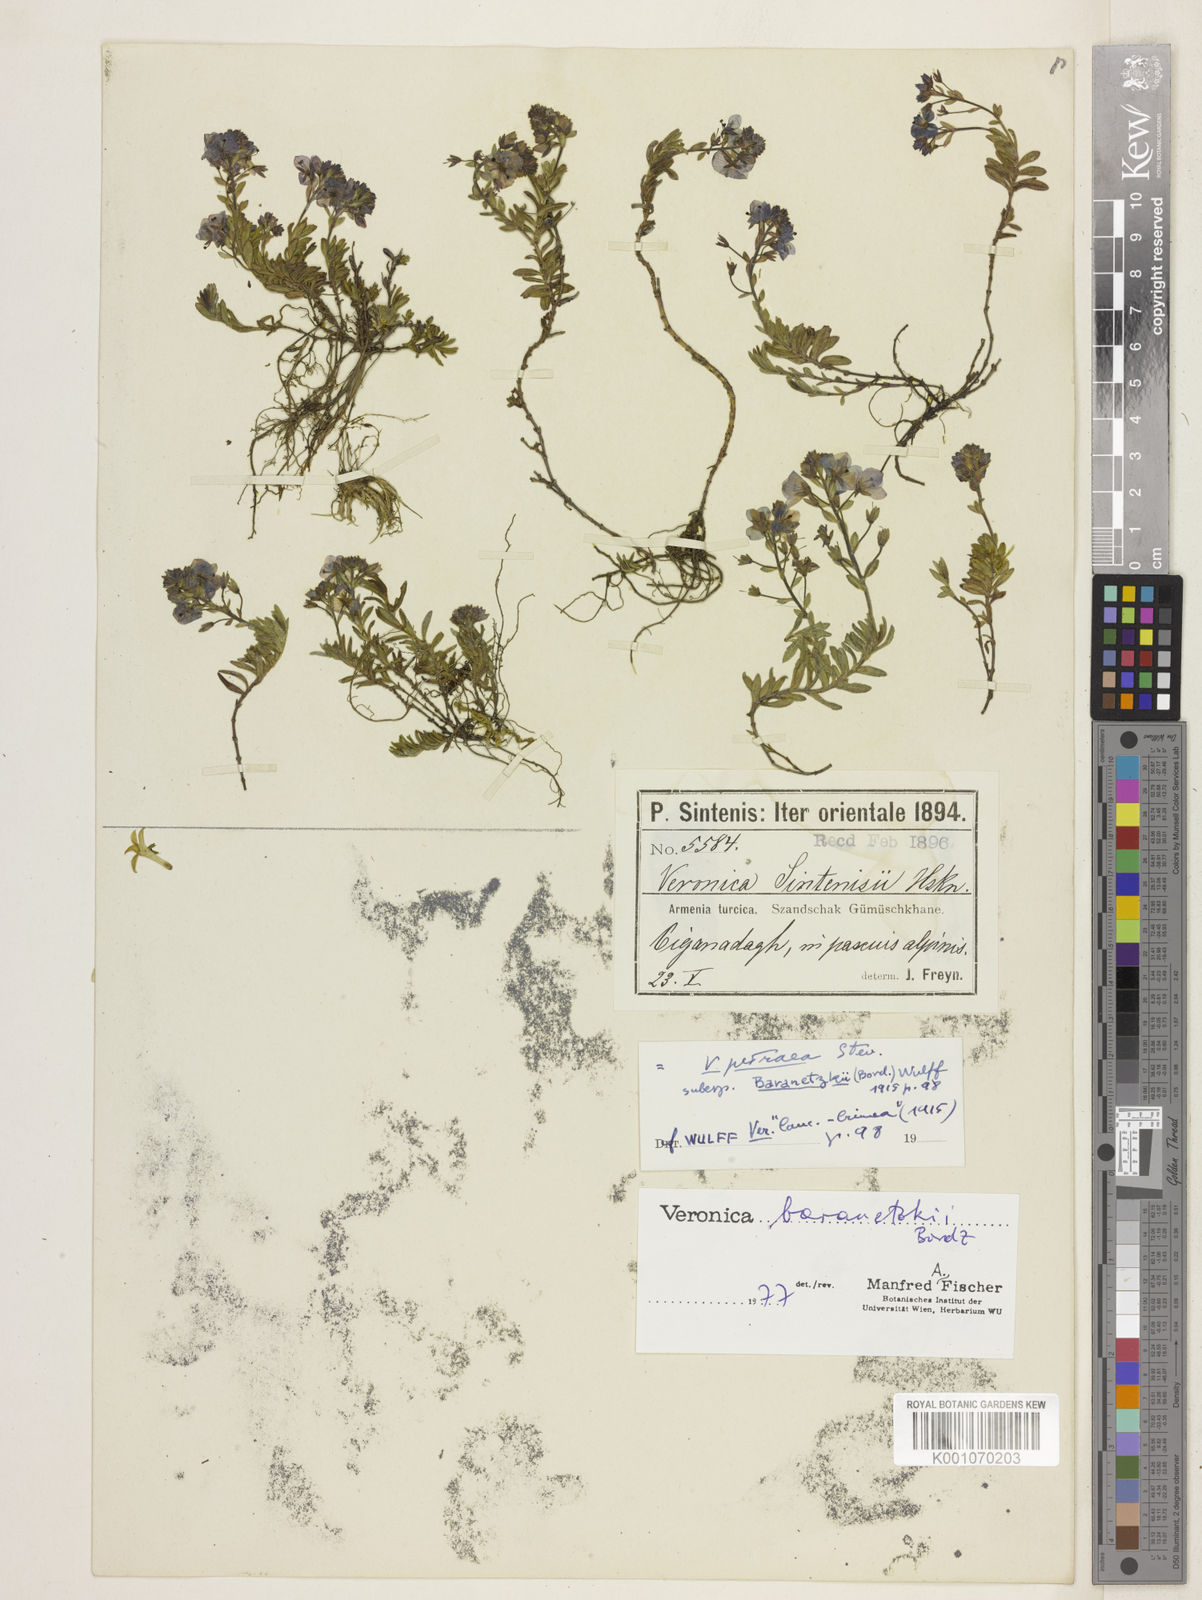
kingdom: Plantae
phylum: Tracheophyta
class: Magnoliopsida
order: Lamiales
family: Plantaginaceae
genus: Veronica
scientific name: Veronica denudata
